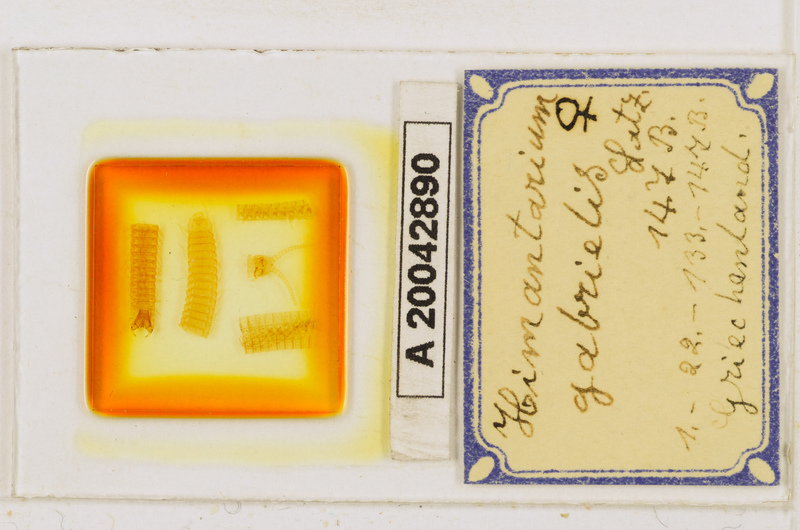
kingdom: Animalia
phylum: Arthropoda
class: Chilopoda
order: Geophilomorpha
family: Himantariidae
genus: Himantarium
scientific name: Himantarium gabrielis
